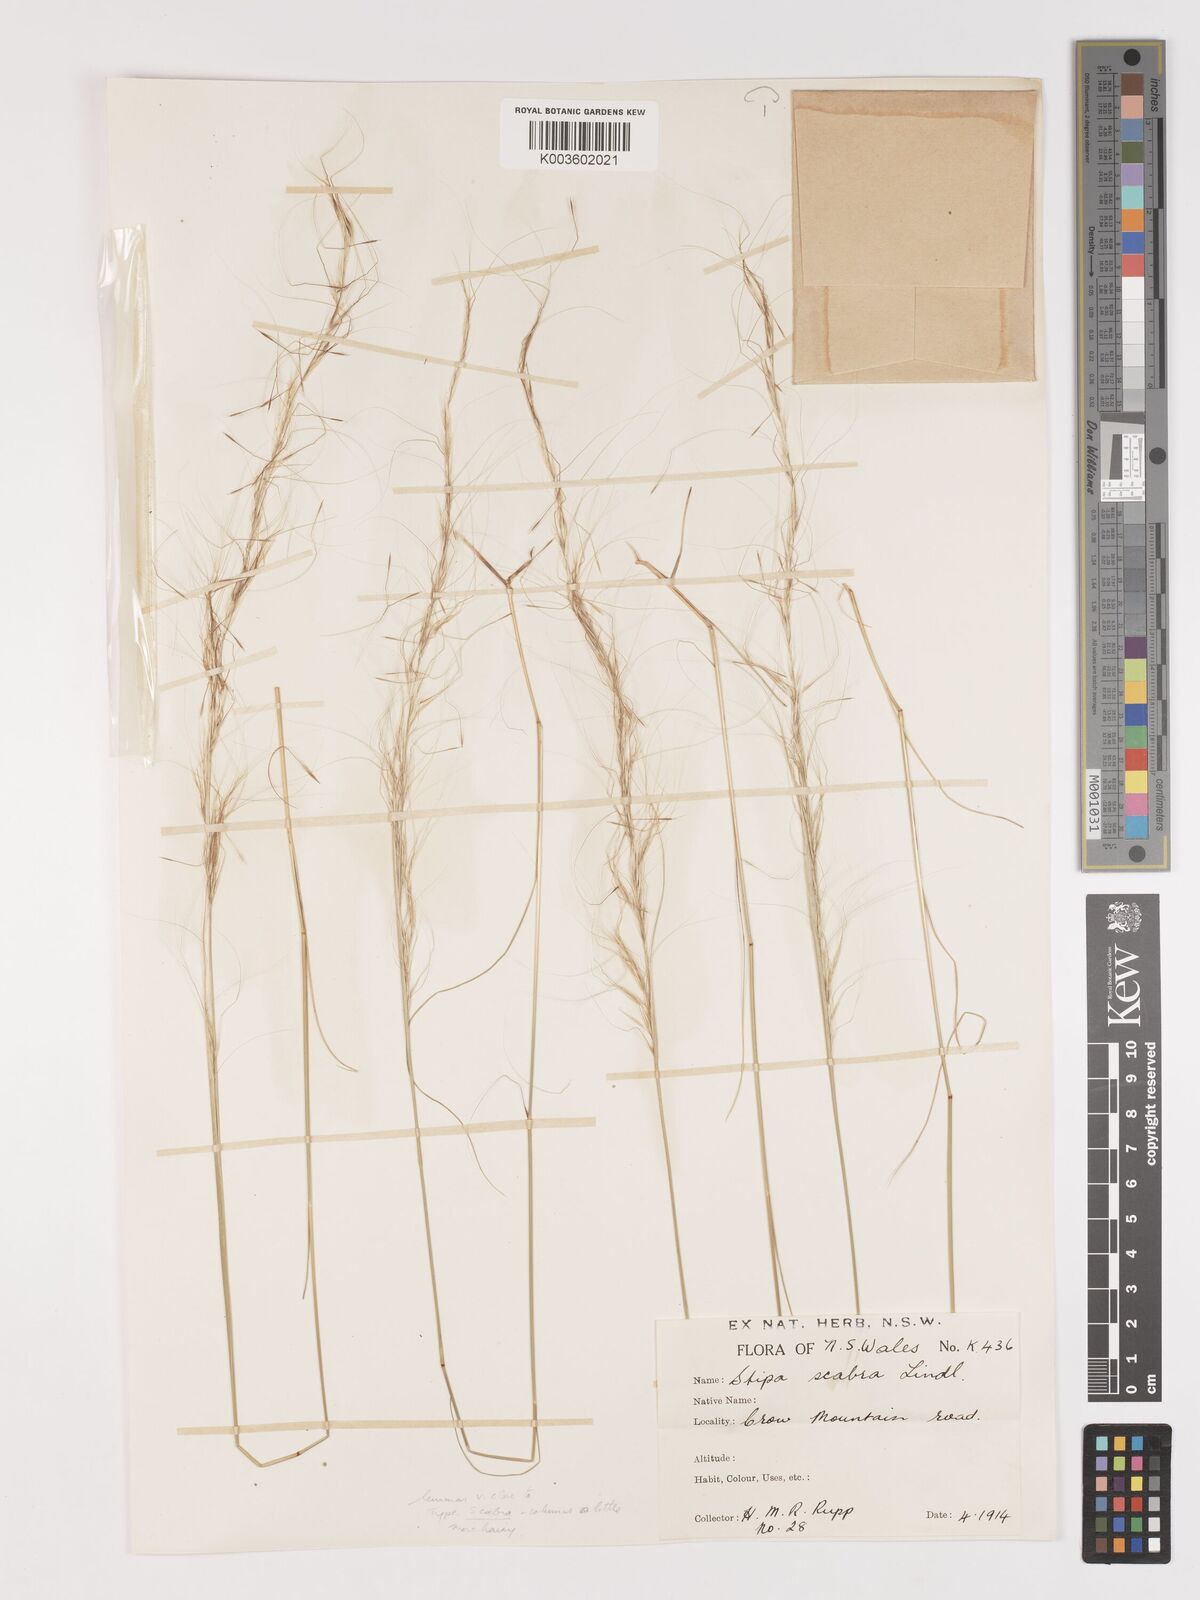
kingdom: Plantae
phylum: Tracheophyta
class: Liliopsida
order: Poales
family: Poaceae
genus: Austrostipa
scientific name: Austrostipa scabra
